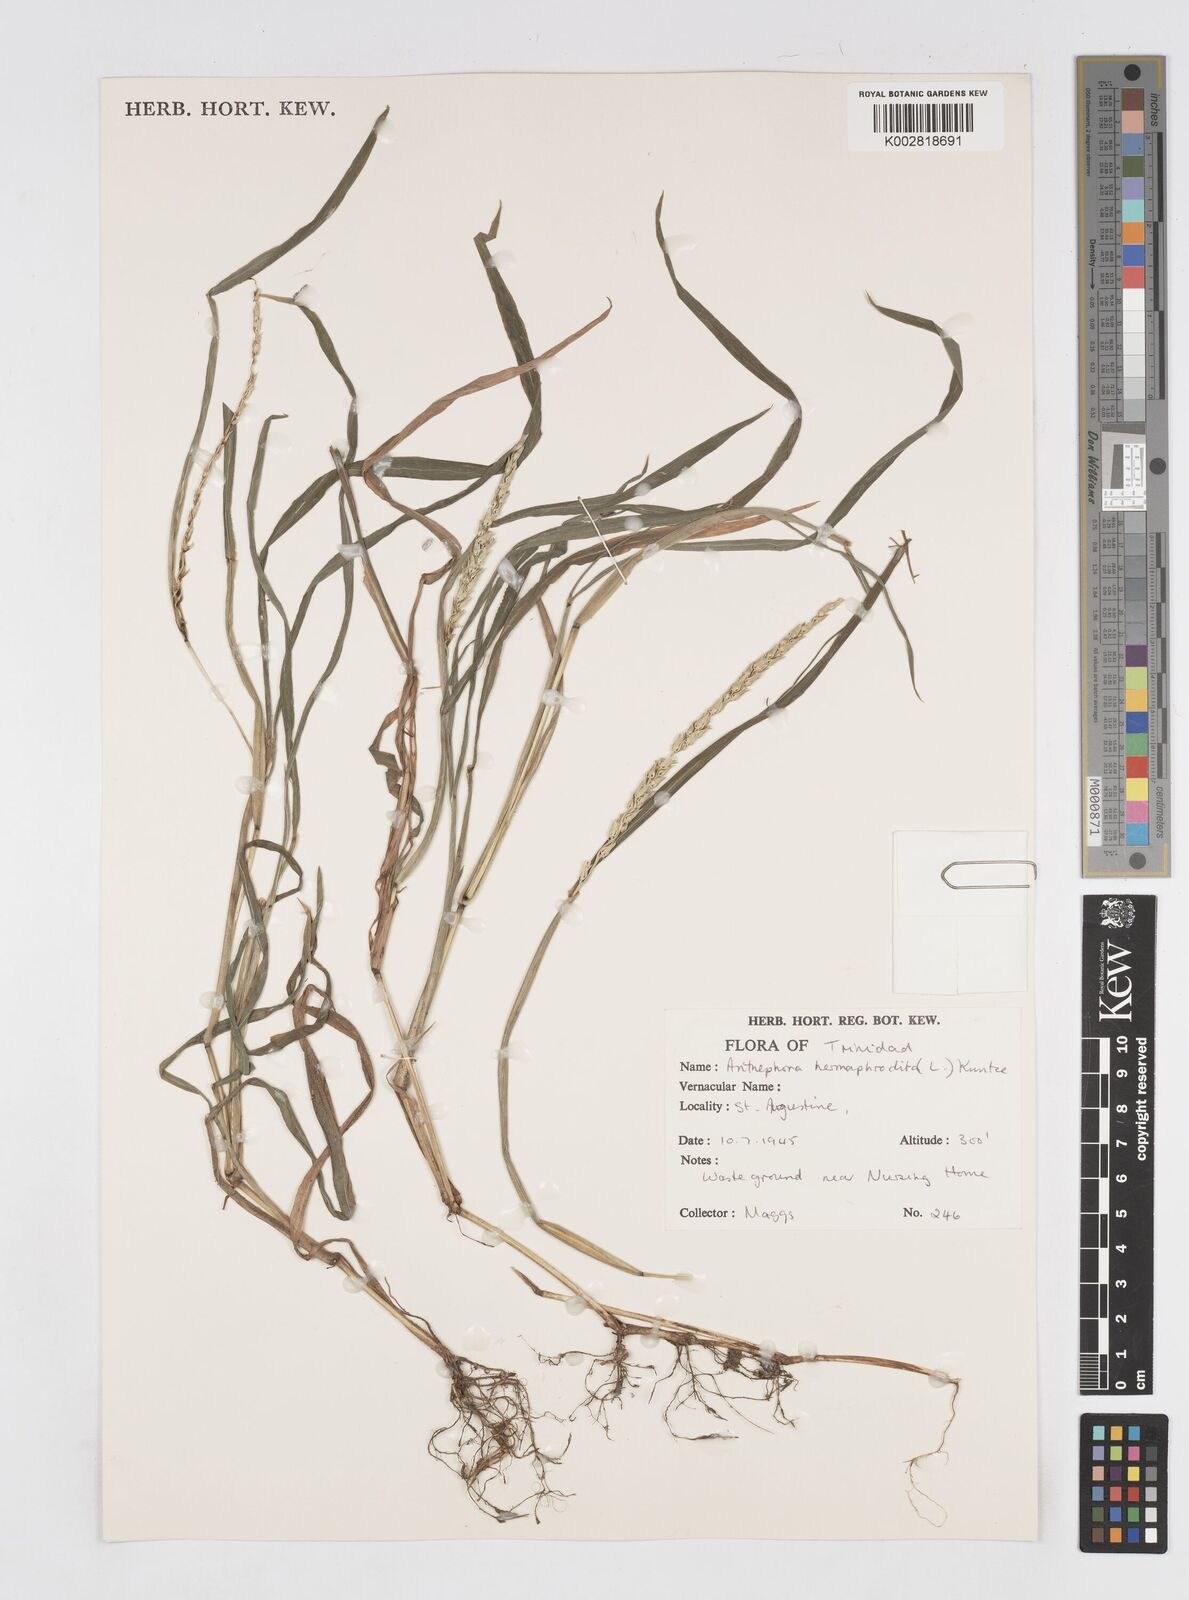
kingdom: Plantae
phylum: Tracheophyta
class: Liliopsida
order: Poales
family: Poaceae
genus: Anthephora
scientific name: Anthephora hermaphrodita
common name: Oldfield grass
